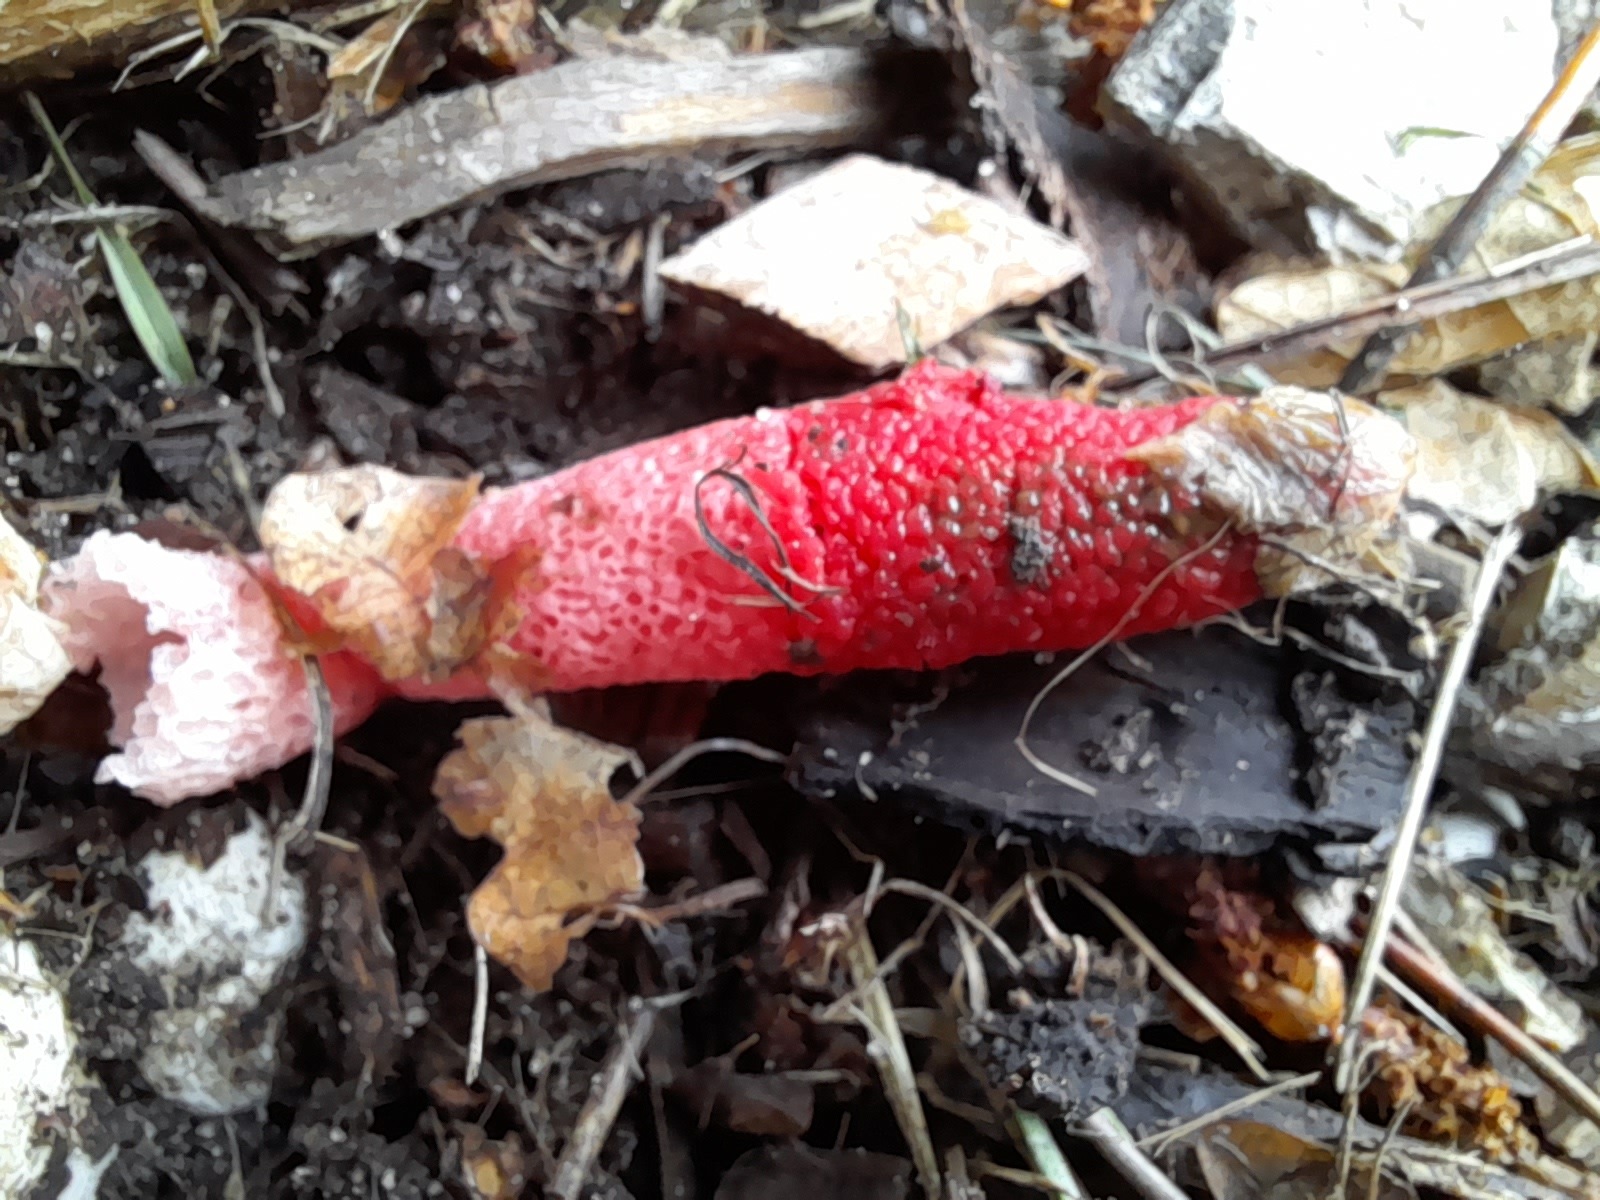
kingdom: Fungi
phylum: Basidiomycota
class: Agaricomycetes
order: Phallales
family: Phallaceae
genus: Mutinus
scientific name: Mutinus ravenelii
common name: rød stinksvamp
